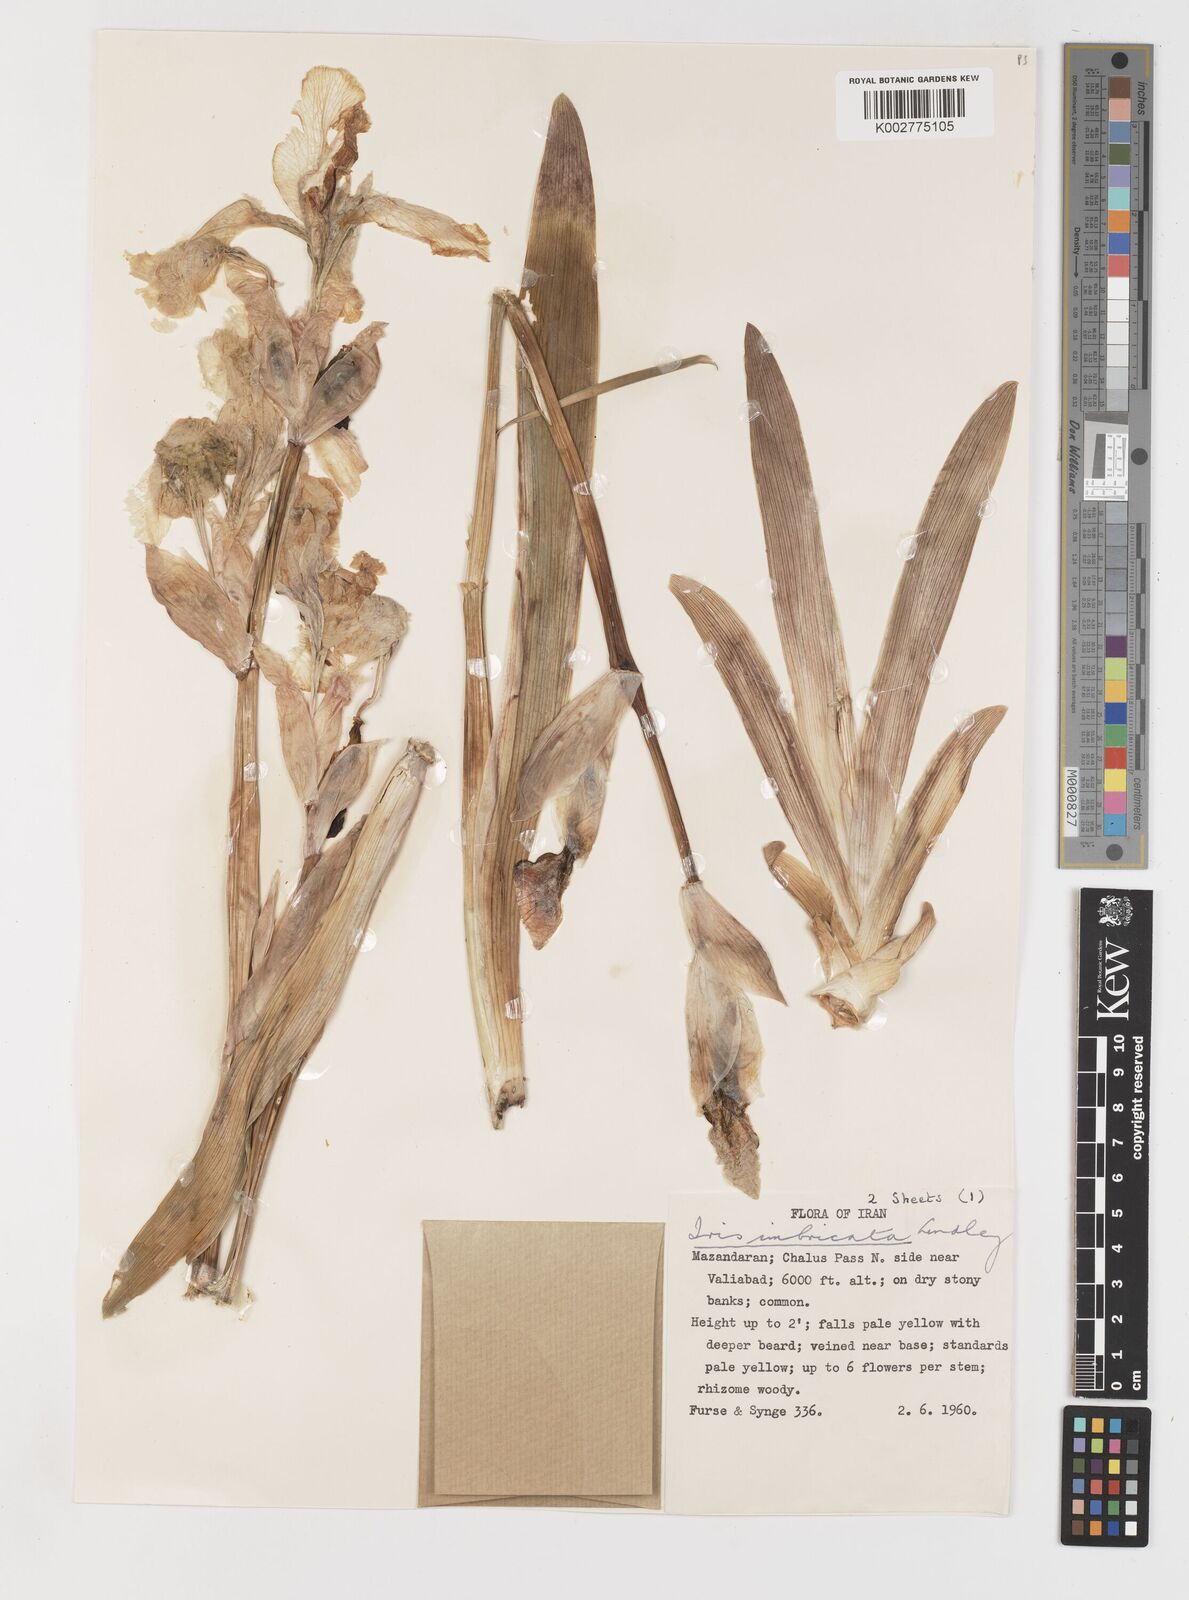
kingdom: Plantae
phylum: Tracheophyta
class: Liliopsida
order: Asparagales
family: Iridaceae
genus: Iris
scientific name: Iris imbricata
